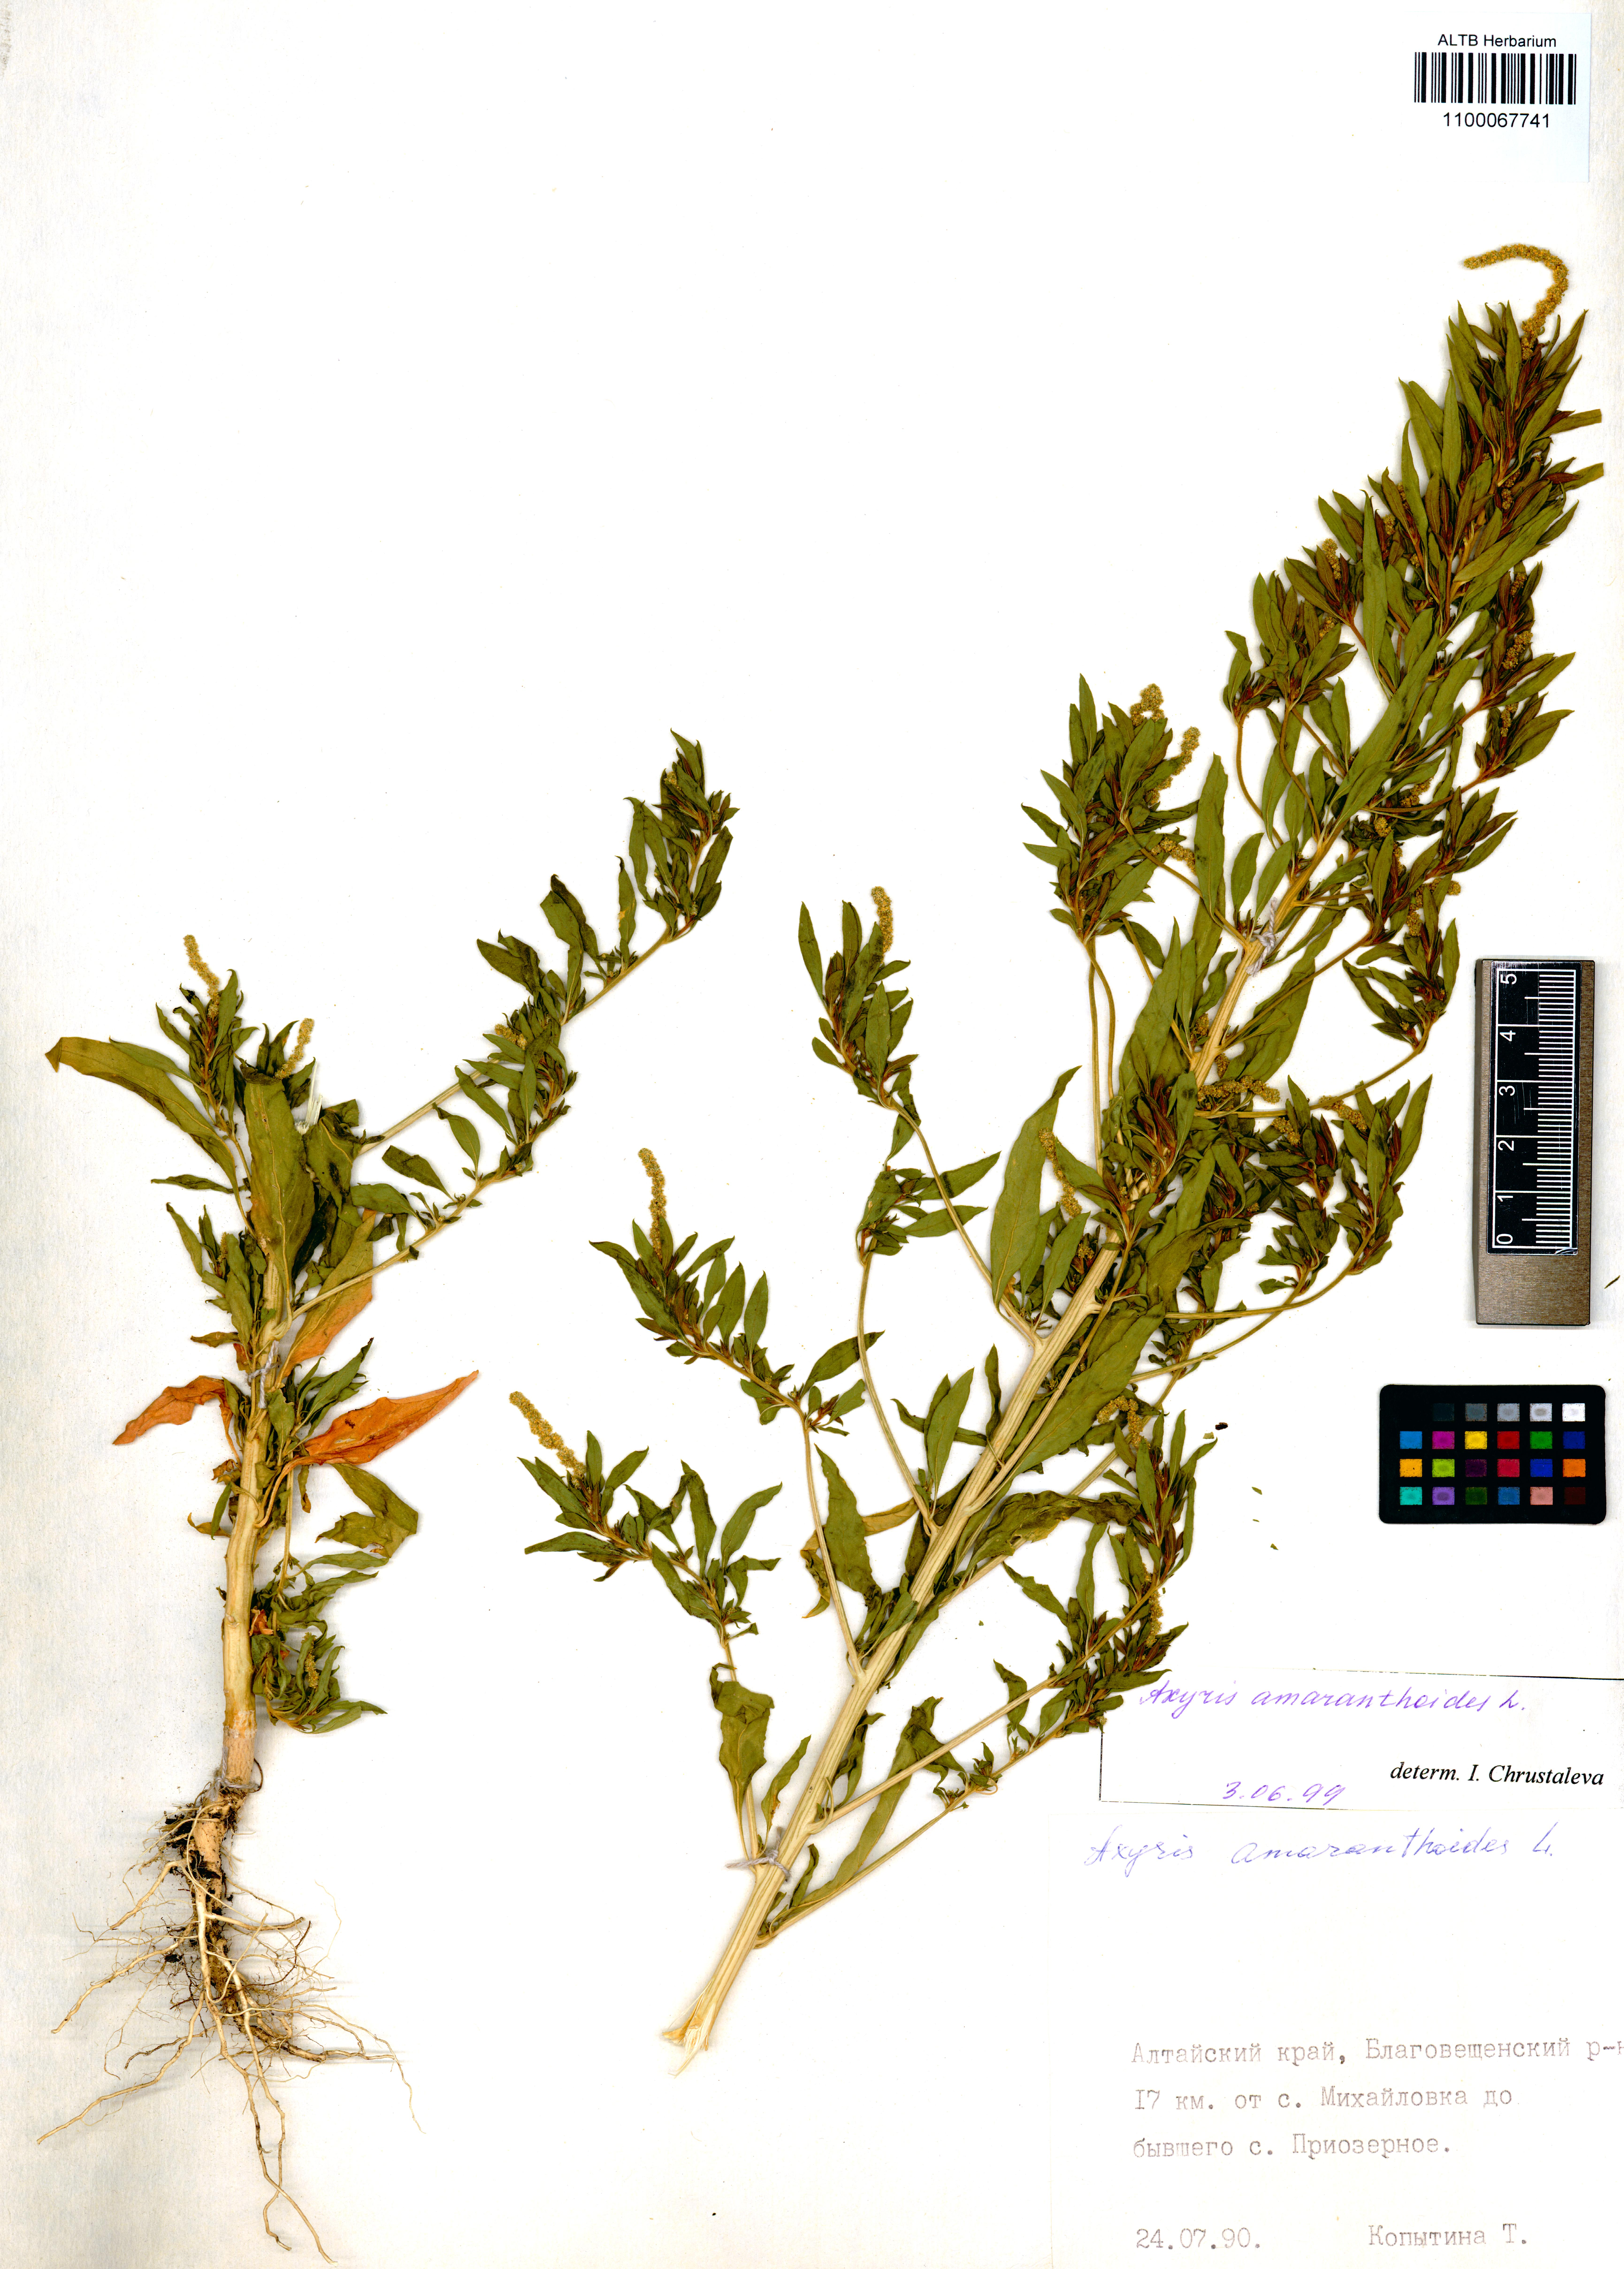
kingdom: Plantae
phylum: Tracheophyta
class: Magnoliopsida
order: Caryophyllales
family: Amaranthaceae
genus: Axyris
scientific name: Axyris amaranthoides
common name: Russian pigweed
